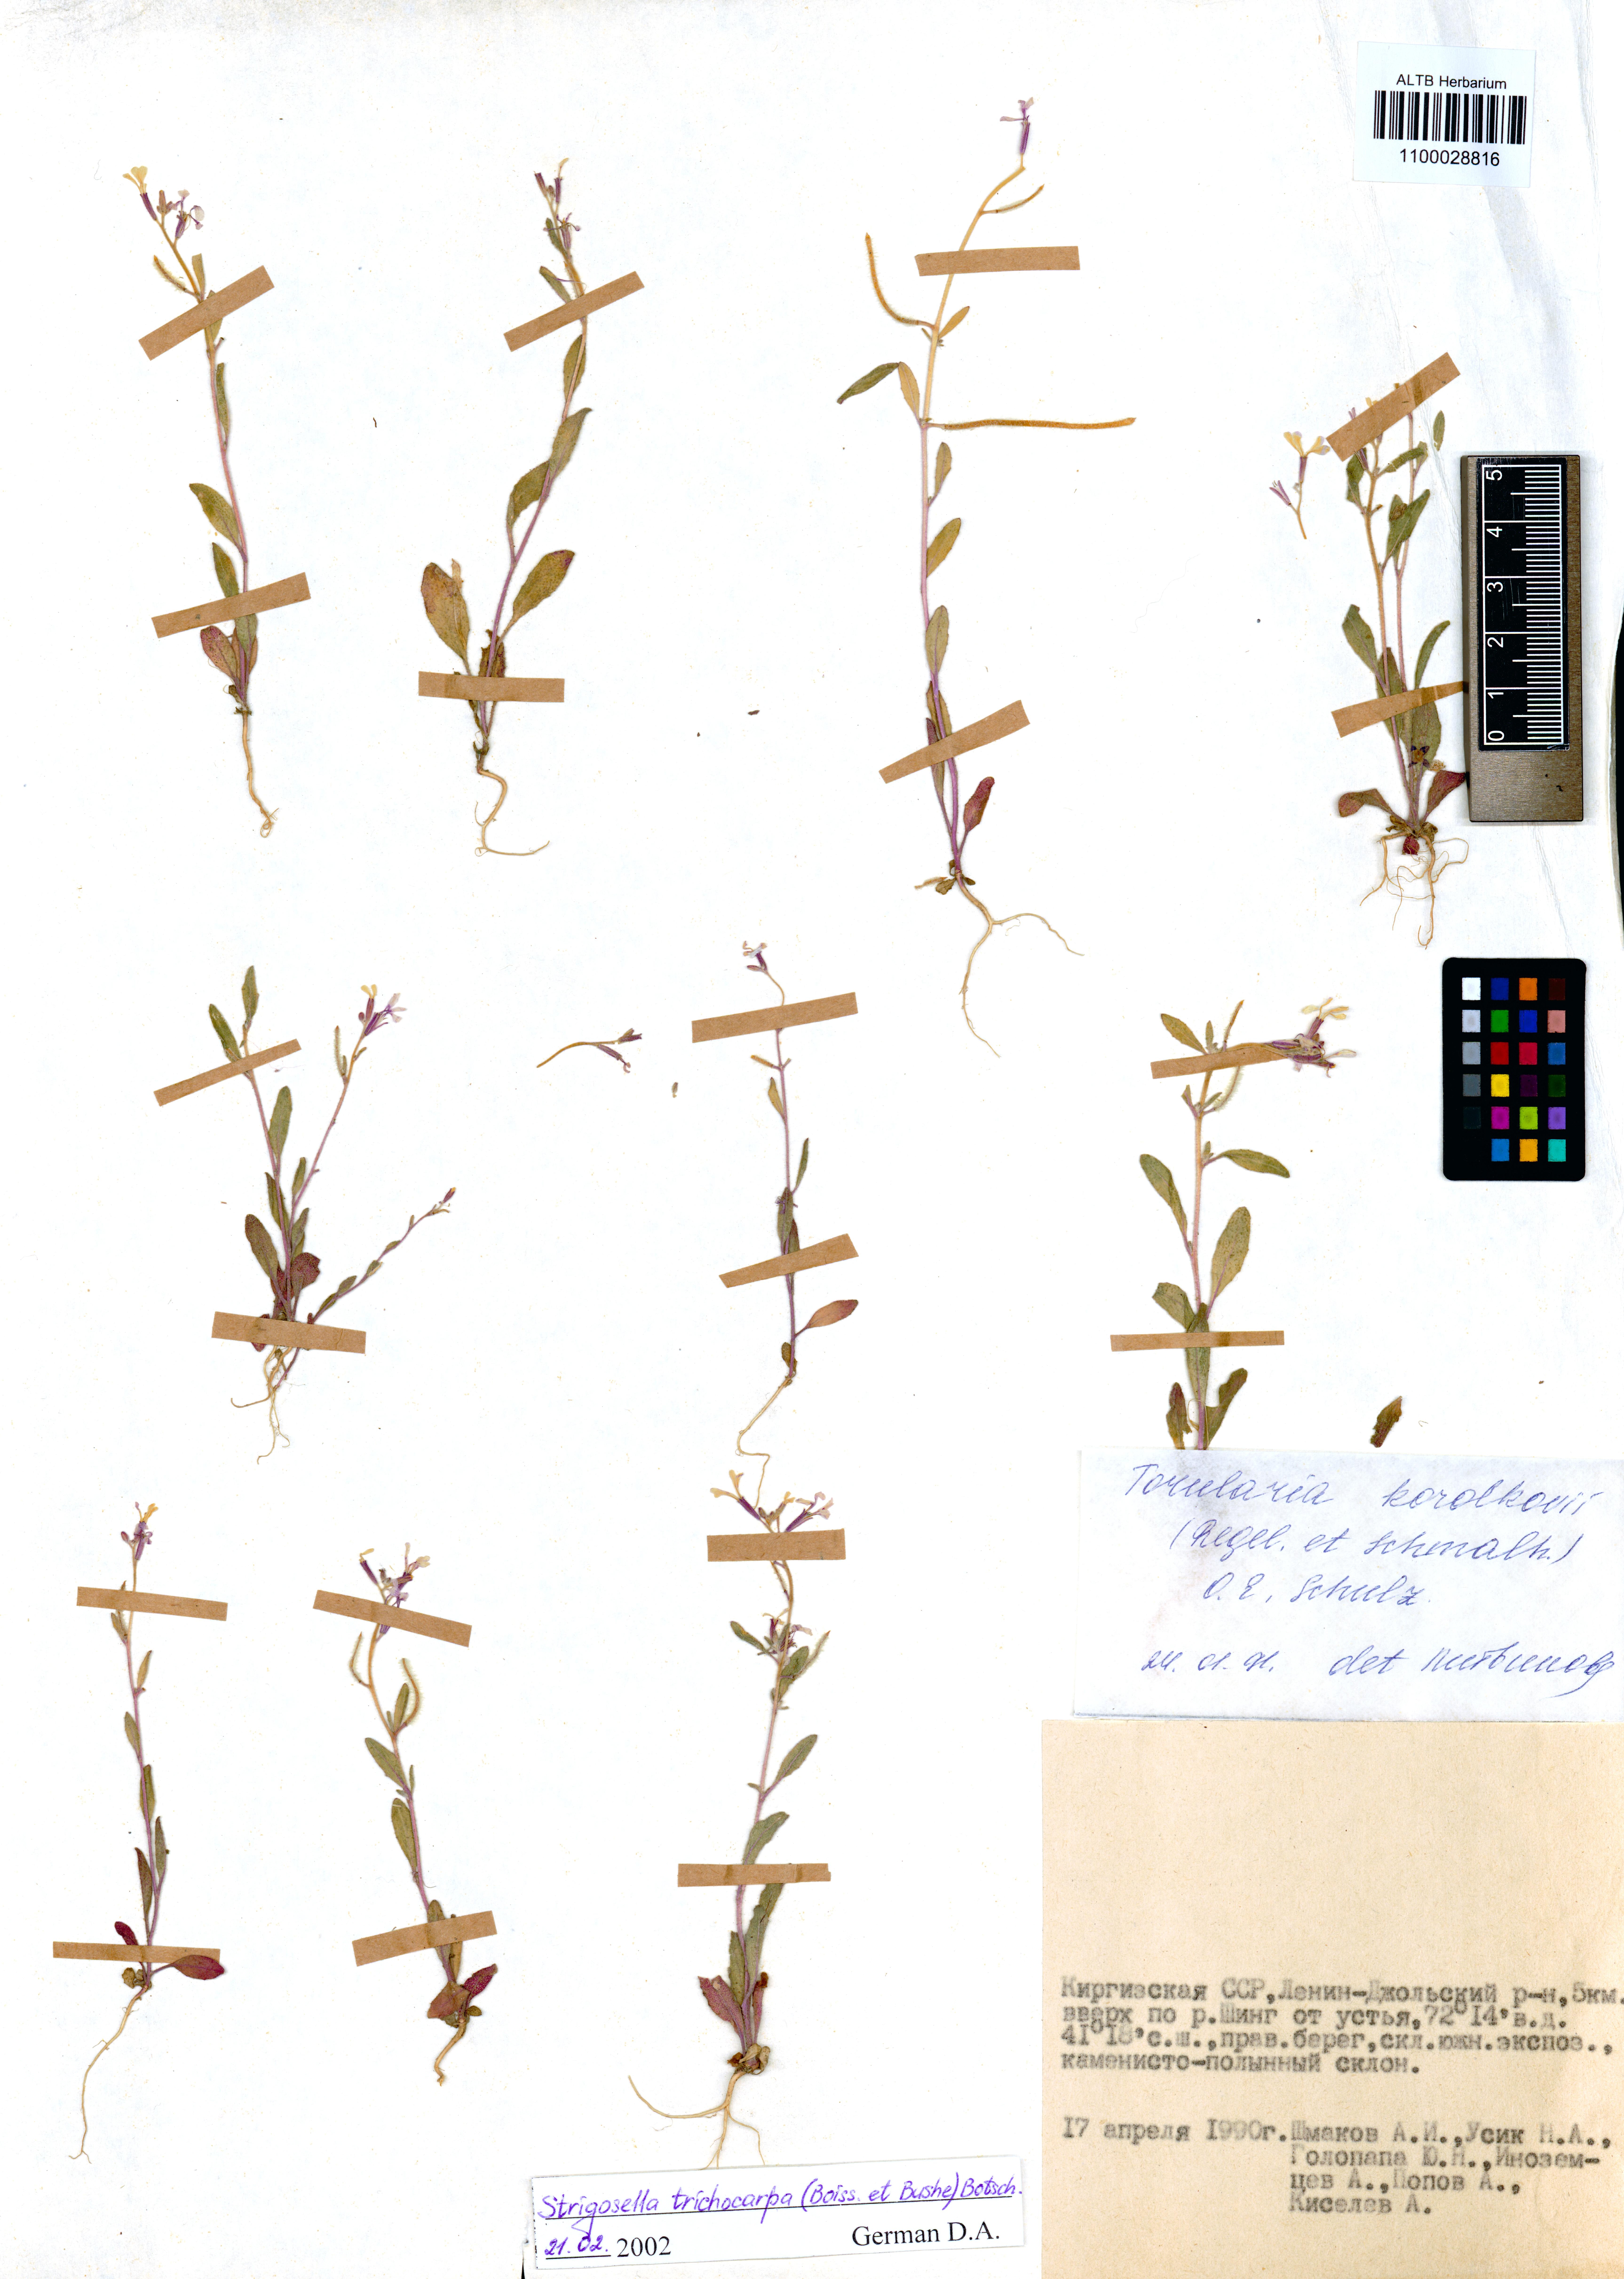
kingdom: Plantae
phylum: Tracheophyta
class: Magnoliopsida
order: Brassicales
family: Brassicaceae
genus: Strigosella
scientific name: Strigosella trichocarpa
